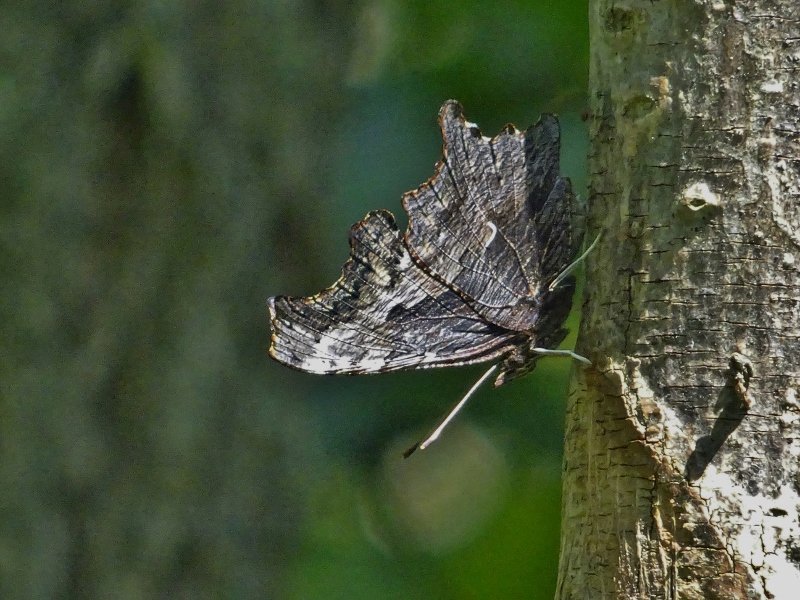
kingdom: Animalia
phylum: Arthropoda
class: Insecta
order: Lepidoptera
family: Nymphalidae
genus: Polygonia
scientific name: Polygonia progne
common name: Gray Comma
